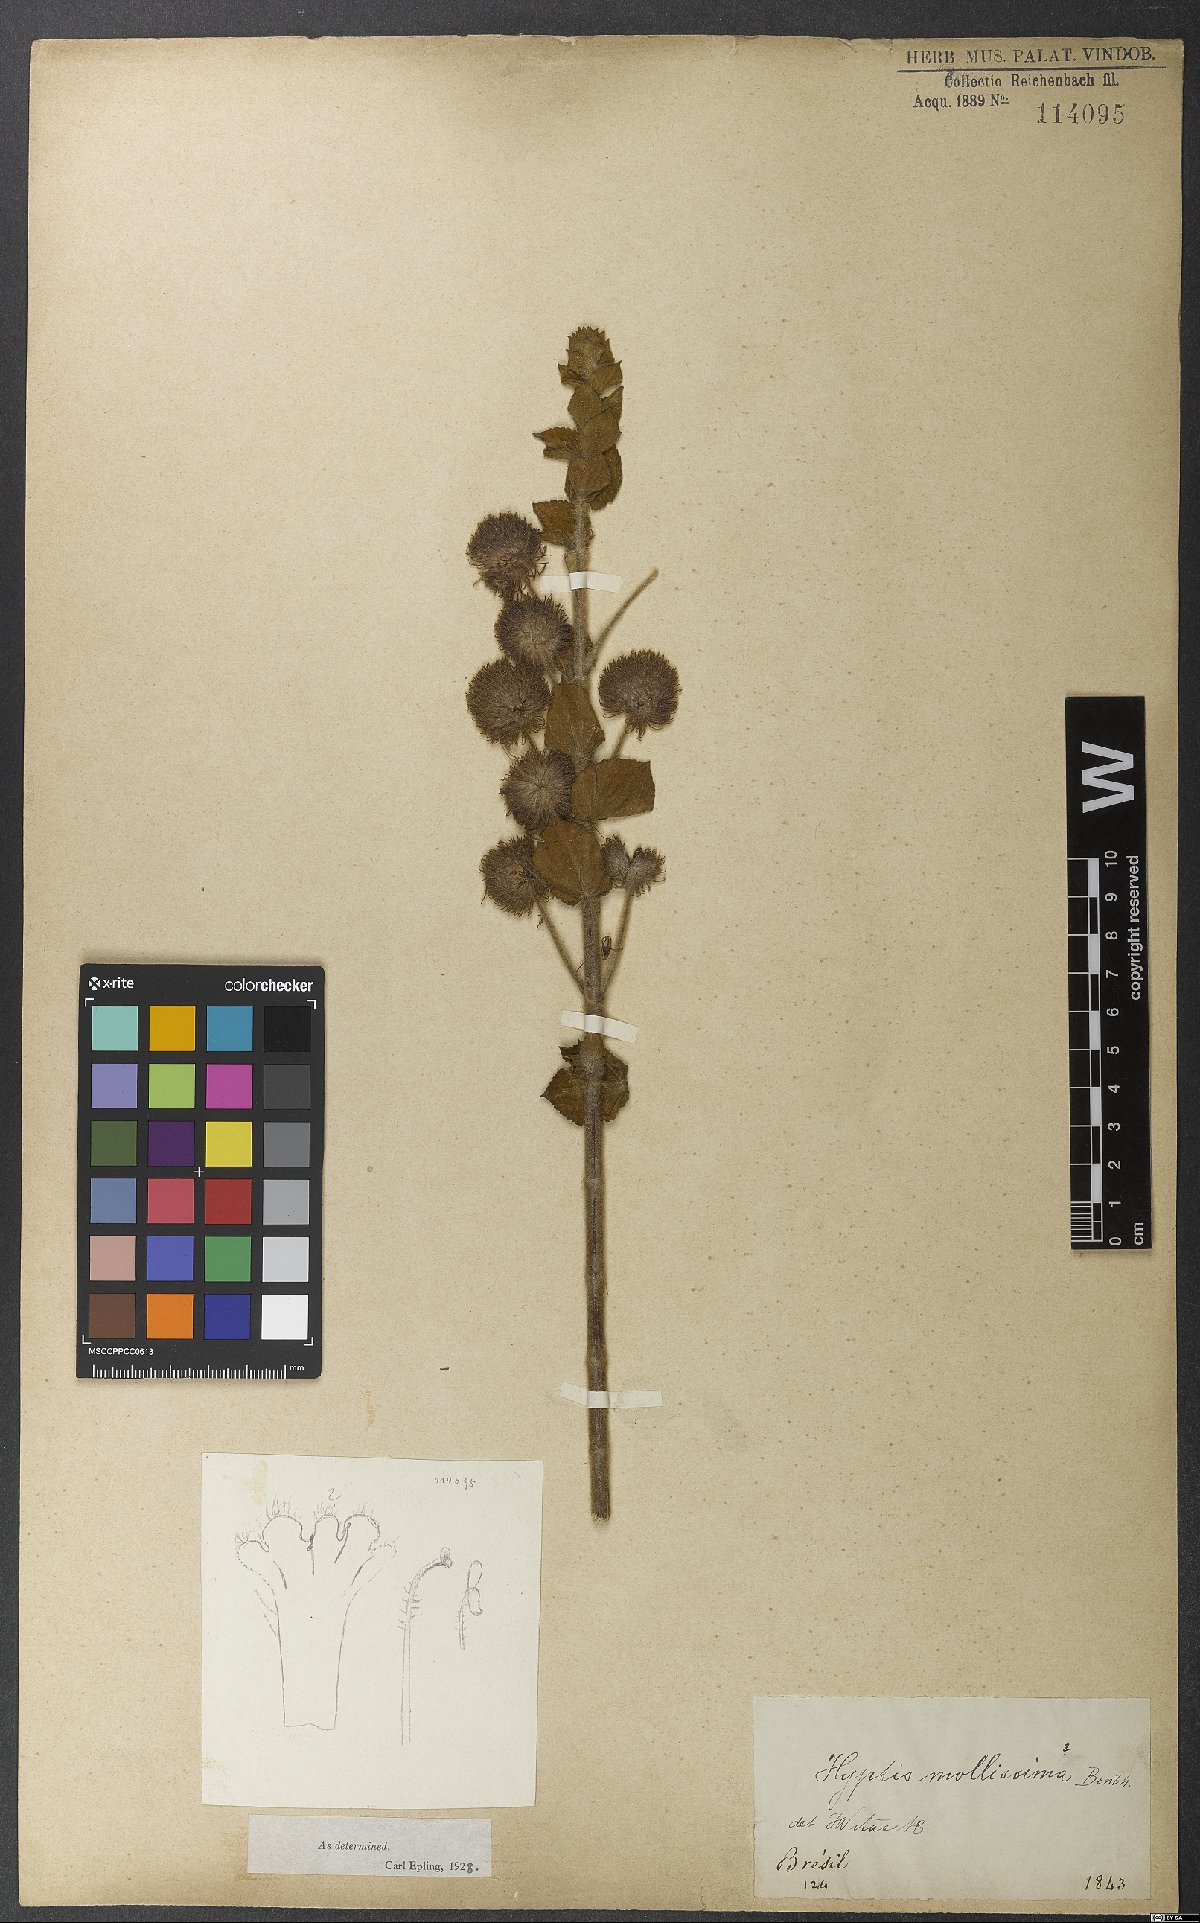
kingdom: Plantae
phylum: Tracheophyta
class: Magnoliopsida
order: Lamiales
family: Lamiaceae
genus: Medusantha
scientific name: Medusantha mollissima
